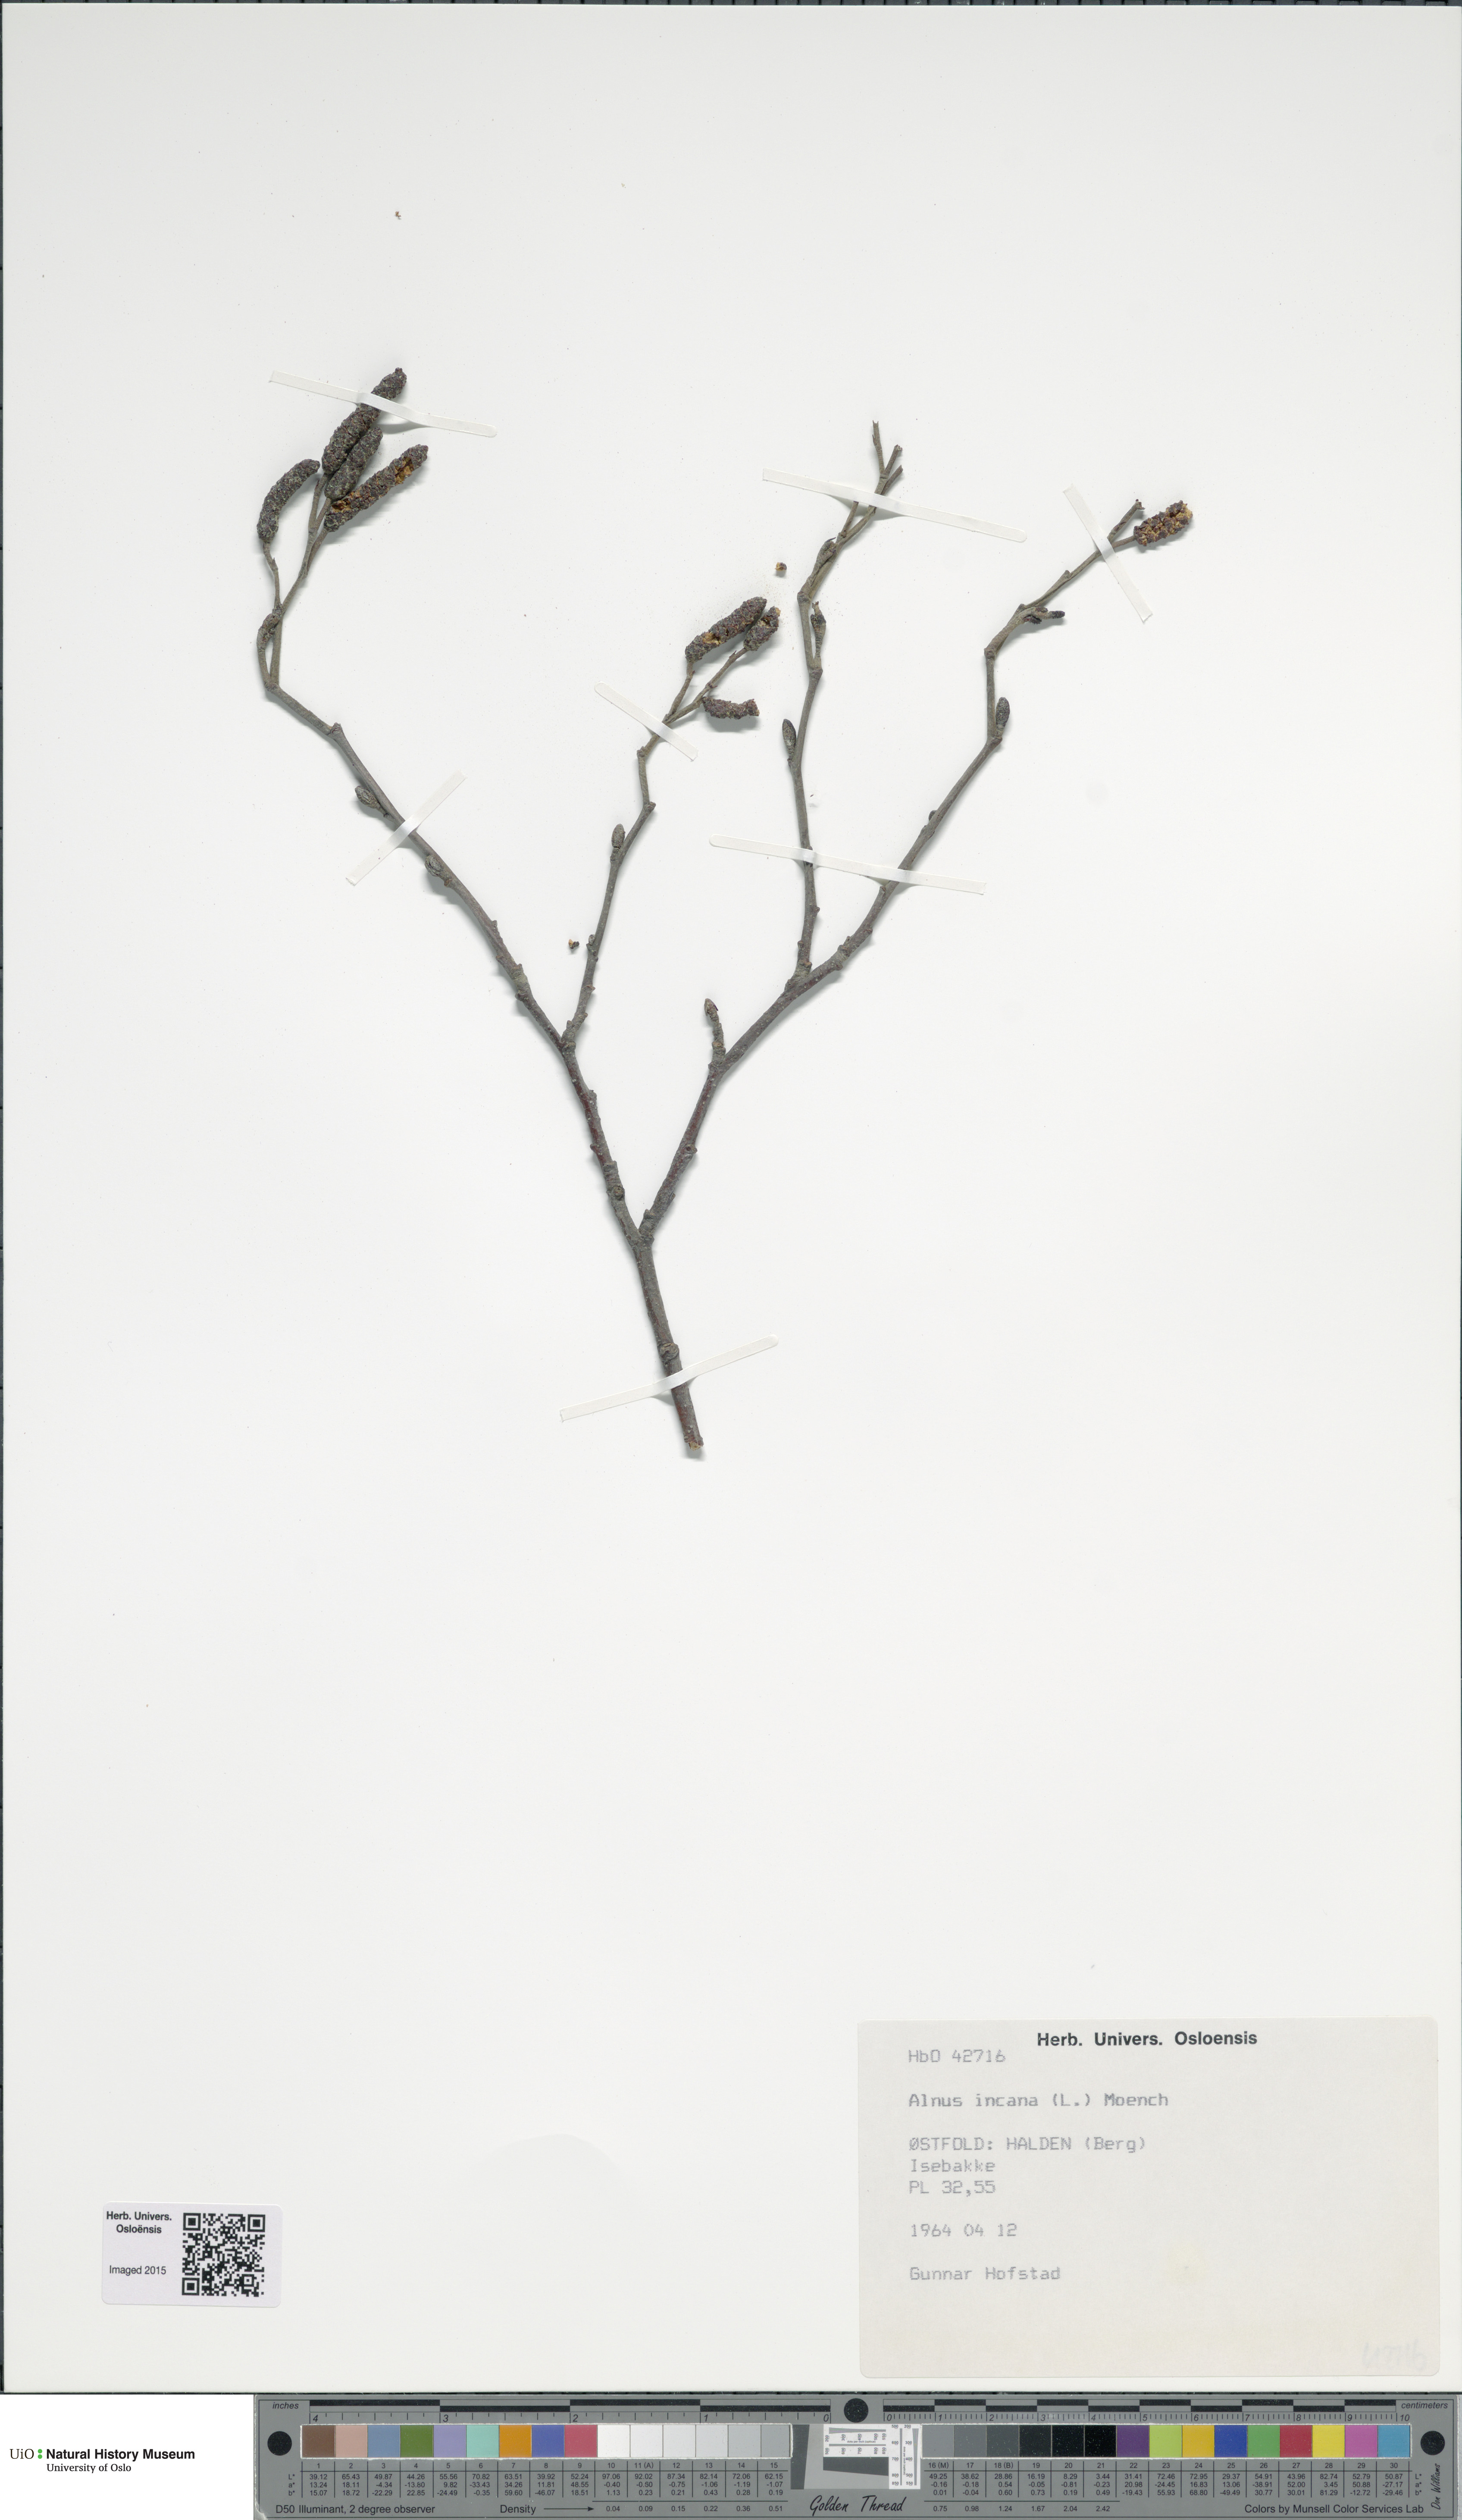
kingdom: Plantae
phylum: Tracheophyta
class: Magnoliopsida
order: Fagales
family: Betulaceae
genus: Alnus
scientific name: Alnus incana
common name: Grey alder
